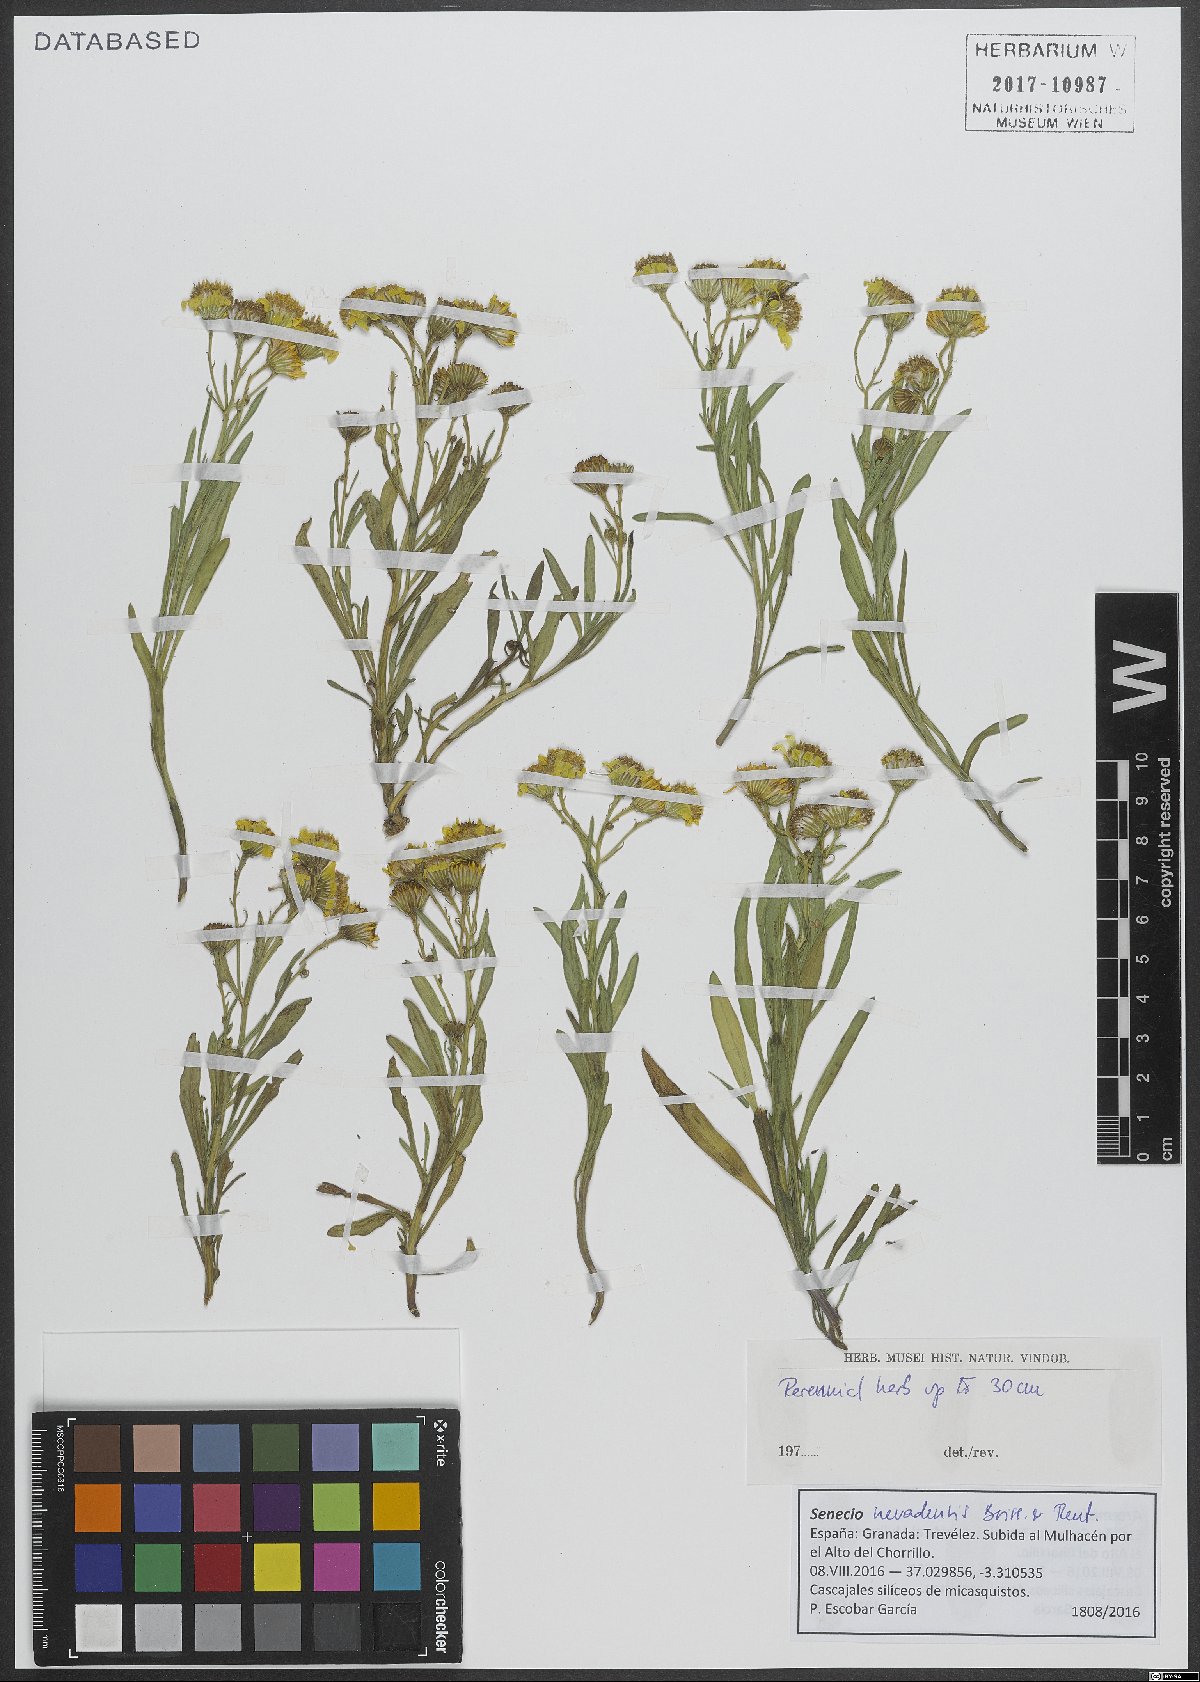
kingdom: Plantae
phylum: Tracheophyta
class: Magnoliopsida
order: Asterales
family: Asteraceae
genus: Senecio
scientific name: Senecio nevadensis
